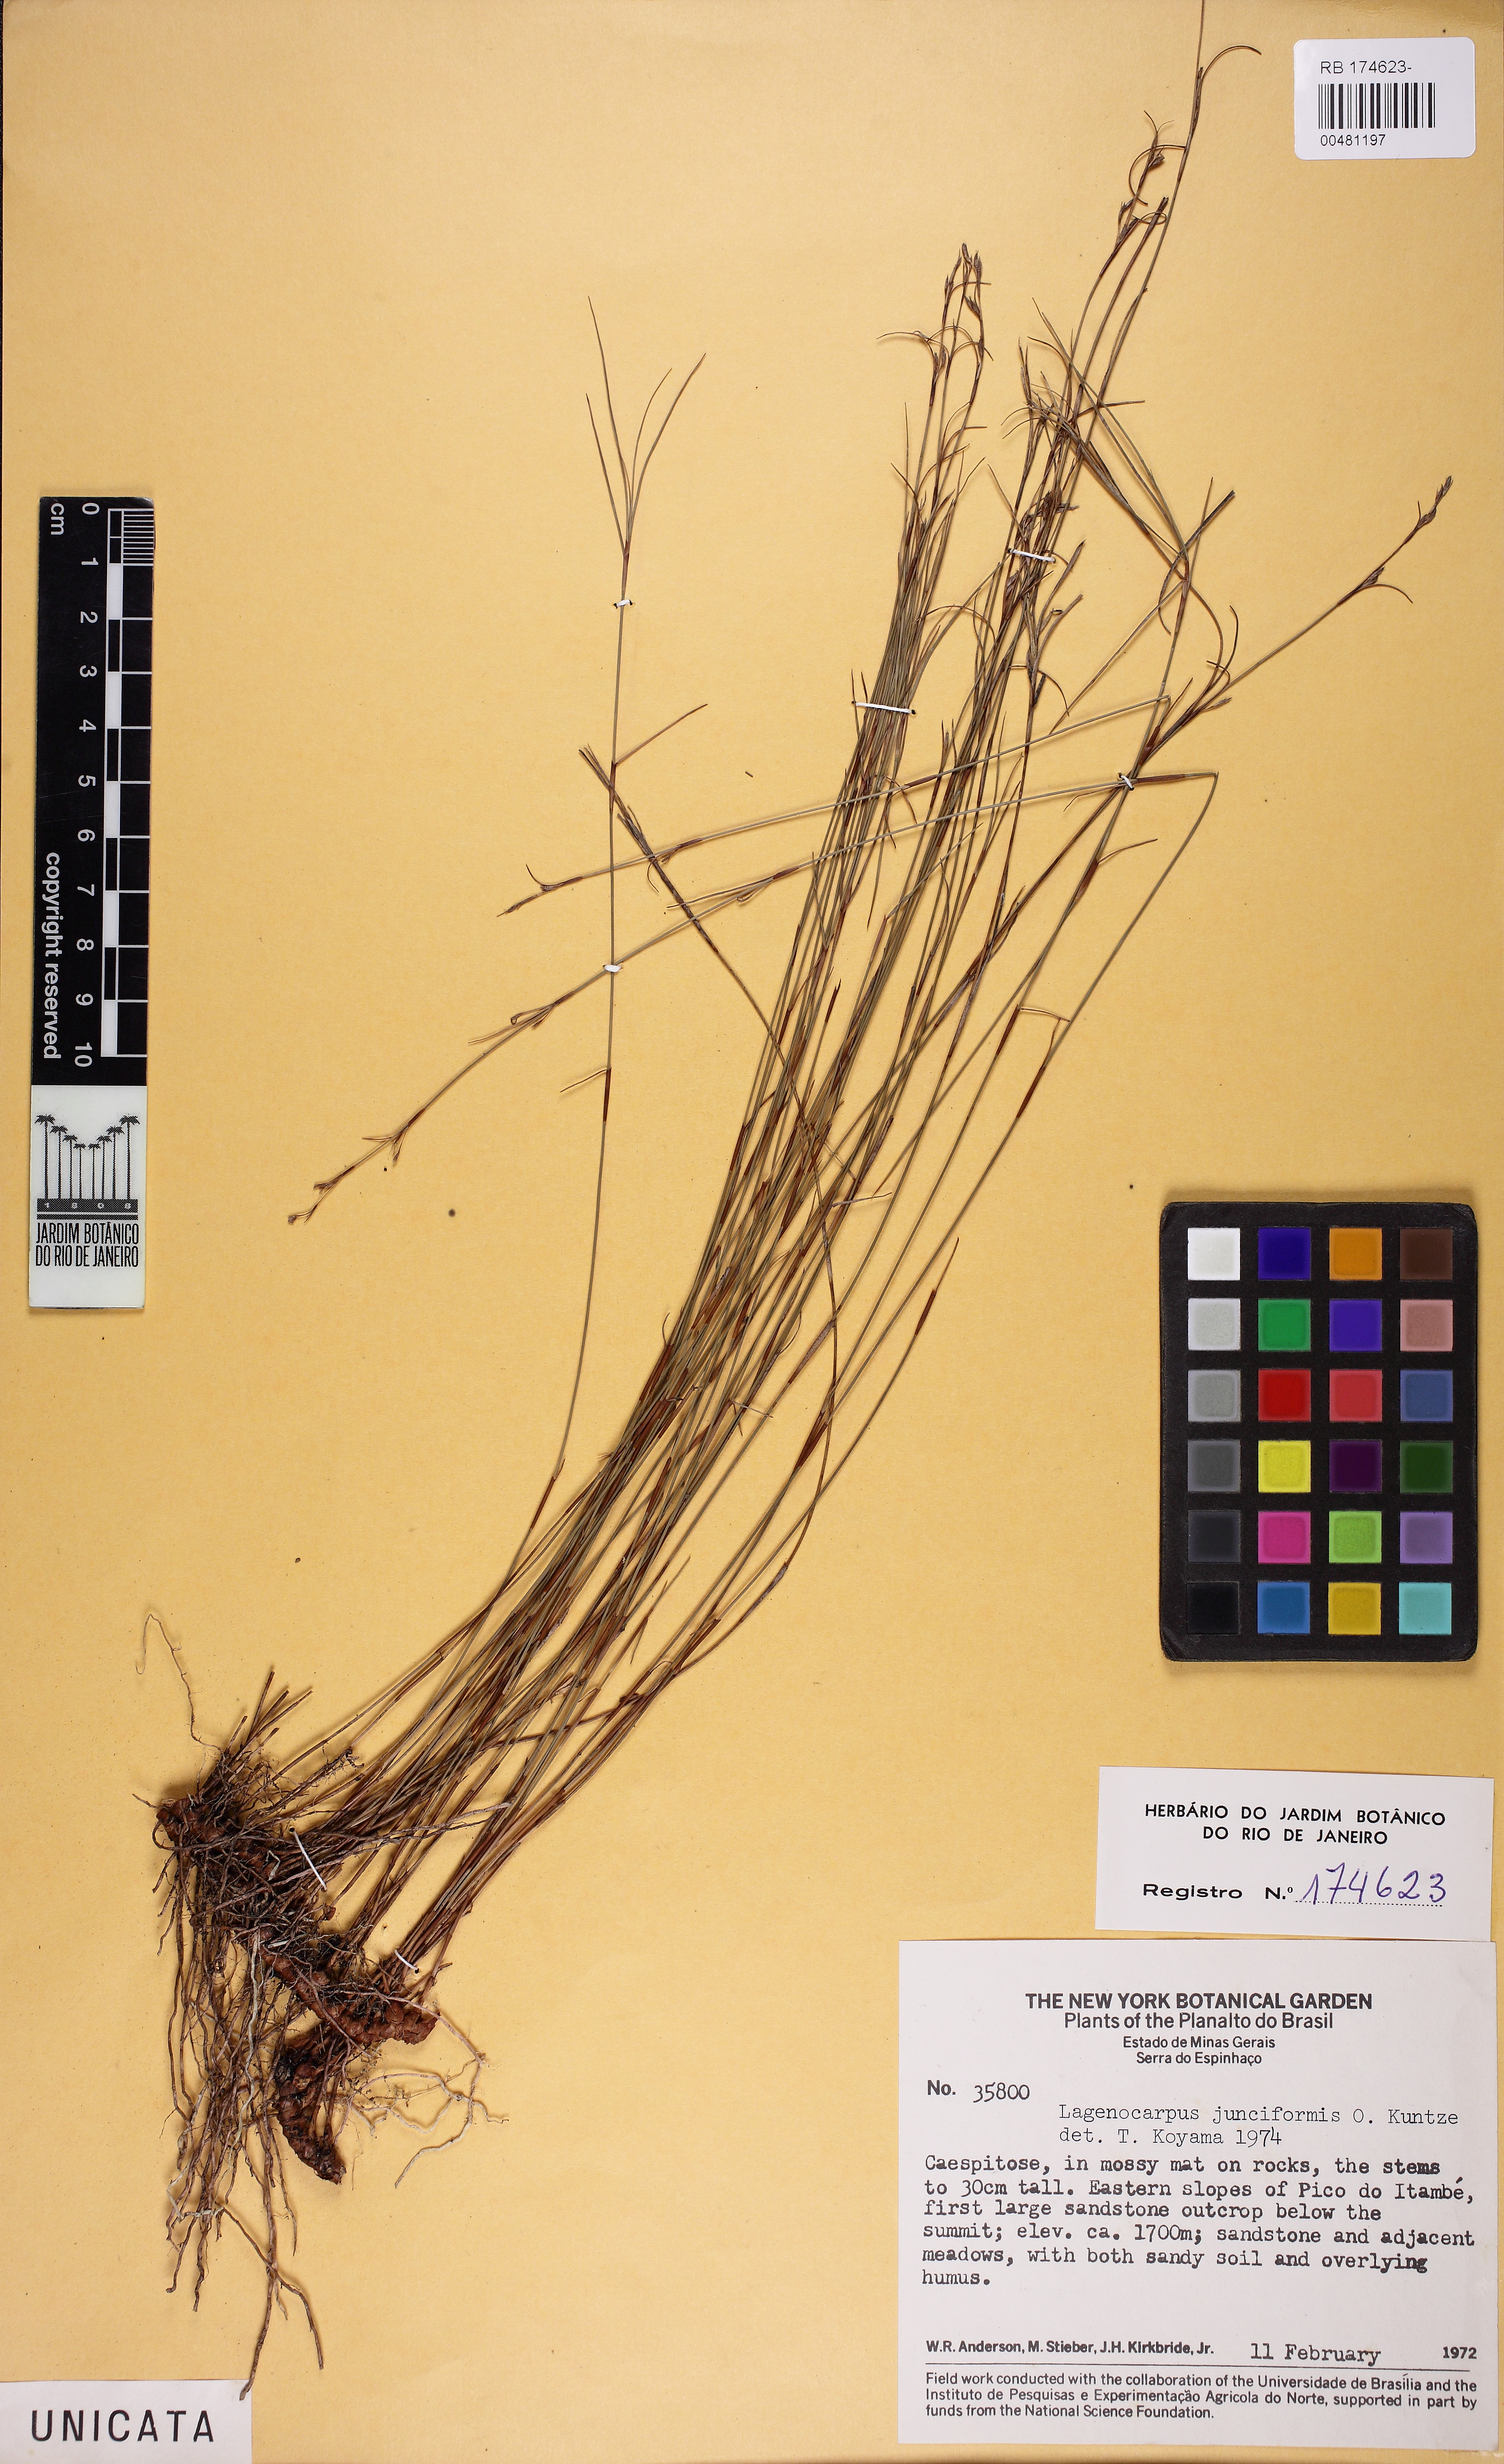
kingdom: Plantae
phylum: Tracheophyta
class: Liliopsida
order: Poales
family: Cyperaceae
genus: Krenakia
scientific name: Krenakia junciformis
